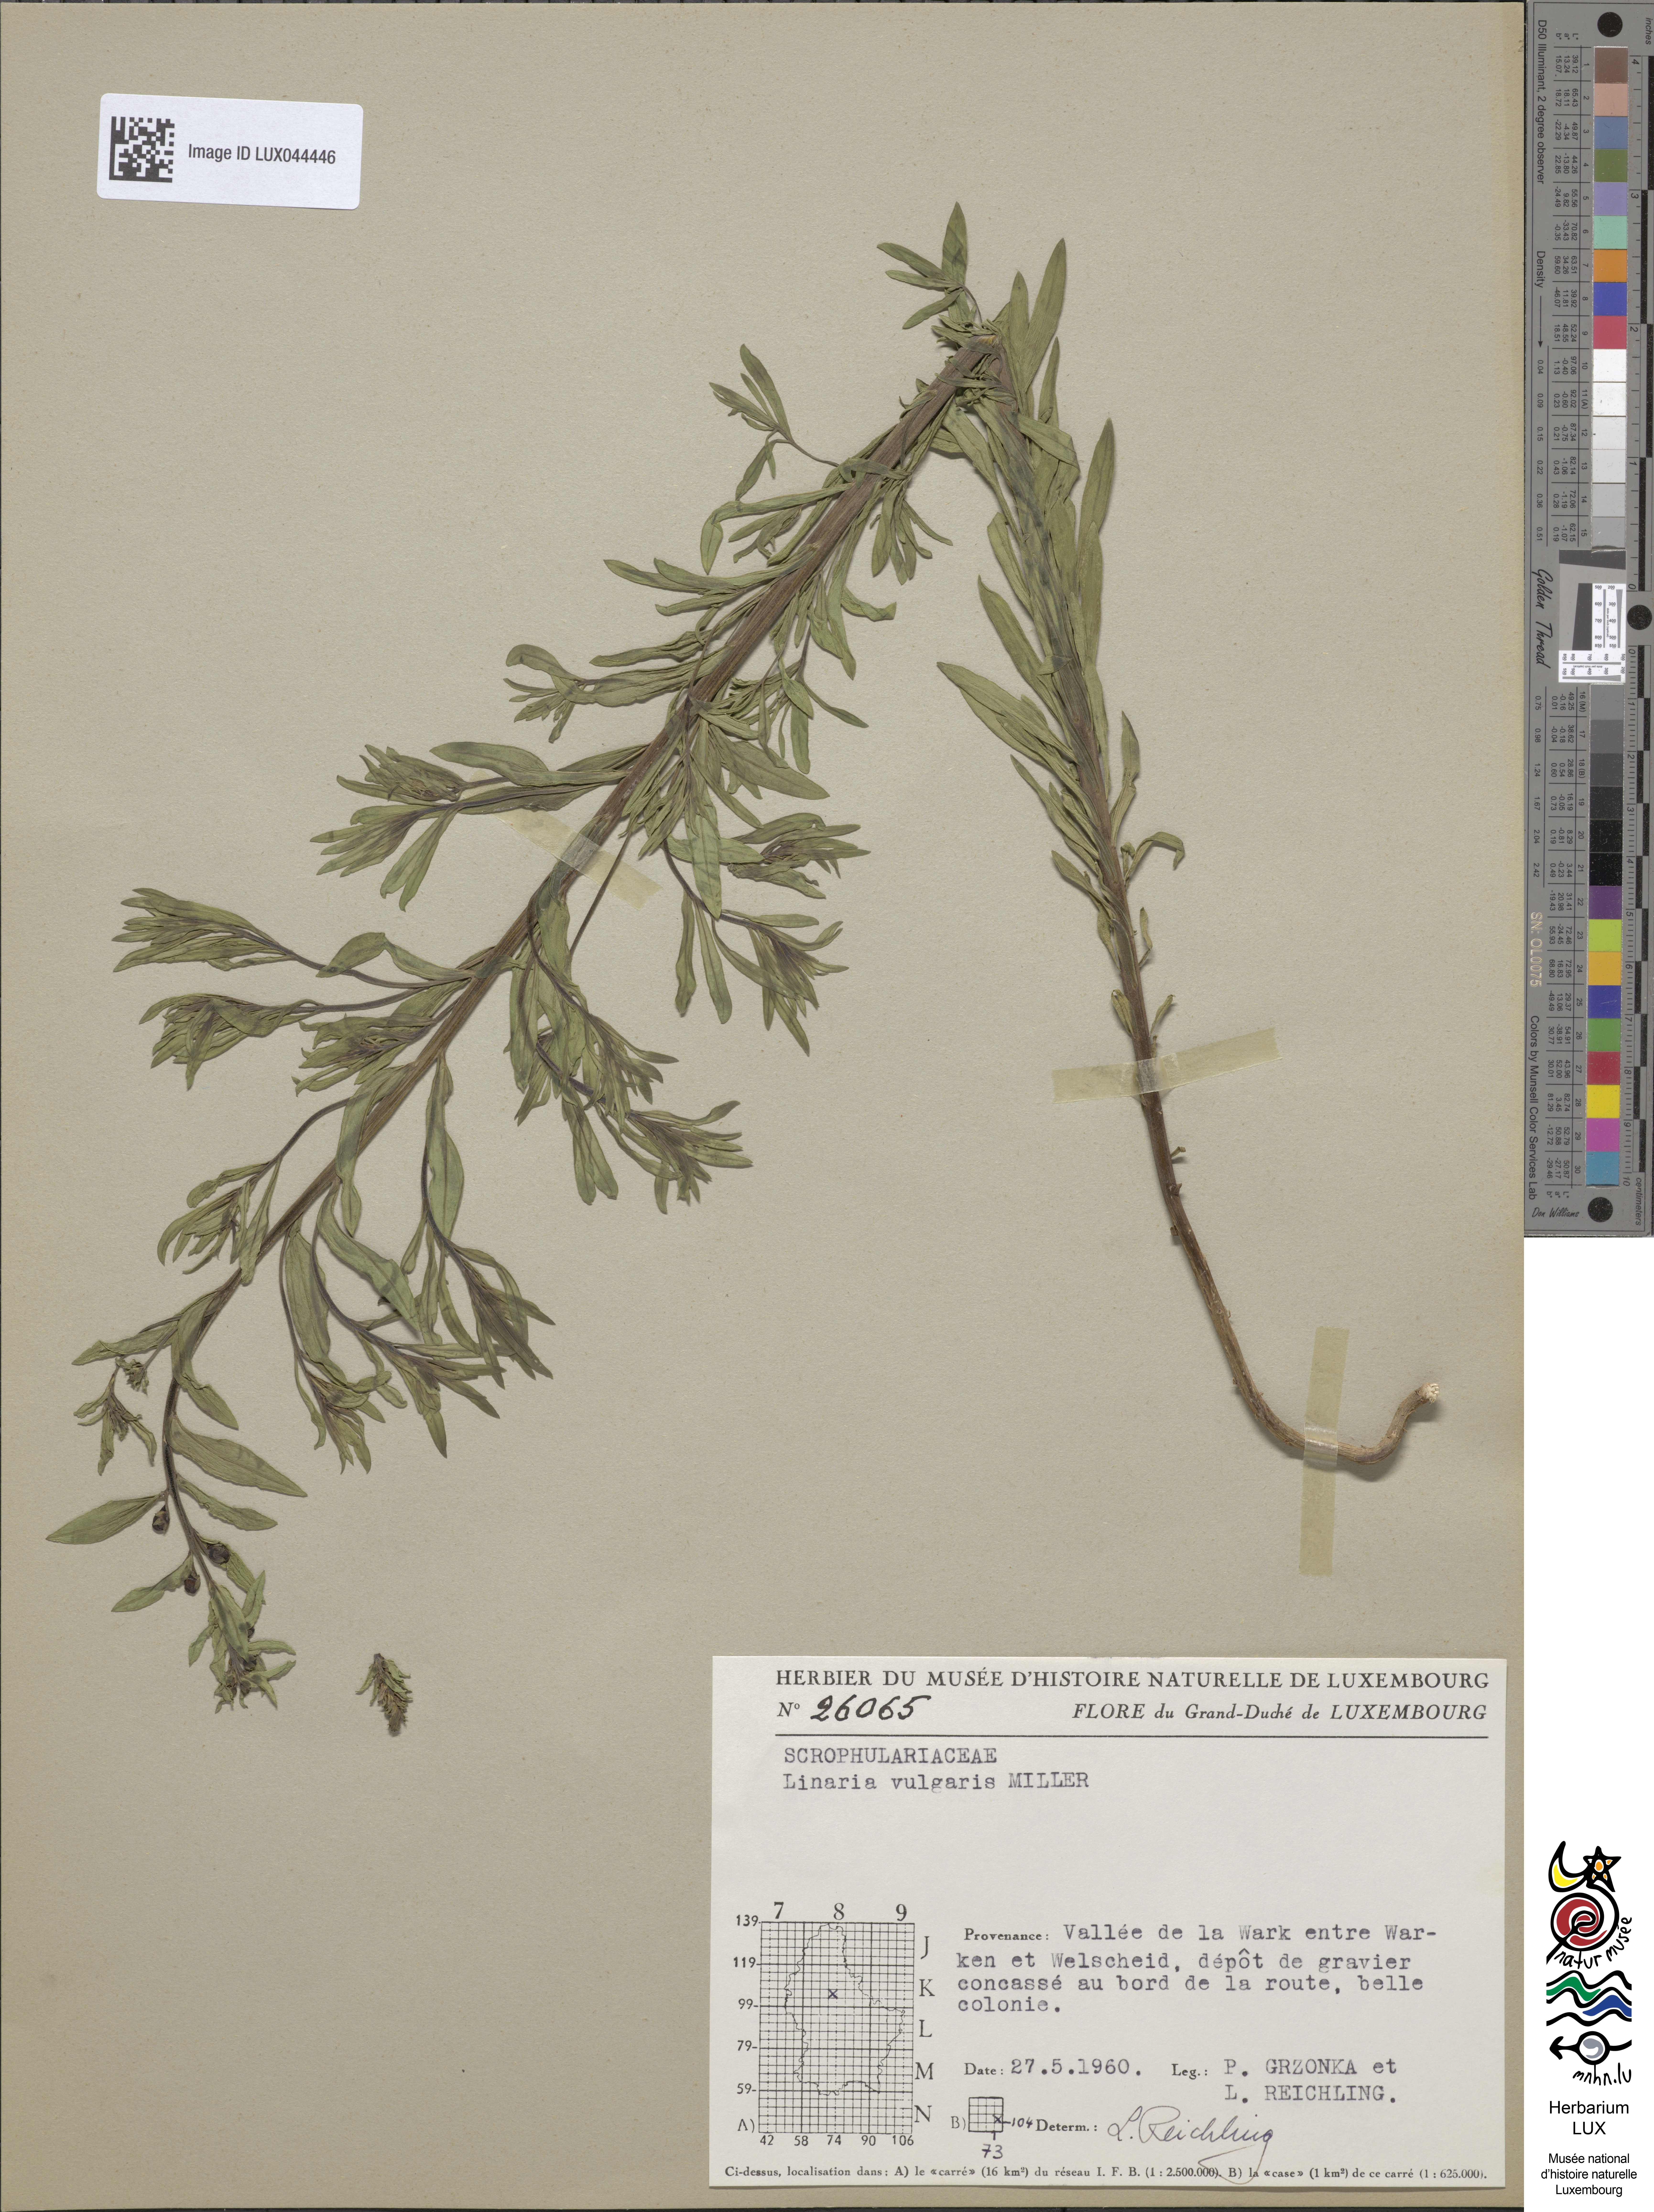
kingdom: Plantae
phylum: Tracheophyta
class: Magnoliopsida
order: Lamiales
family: Plantaginaceae
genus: Linaria
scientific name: Linaria vulgaris
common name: Butter and eggs
